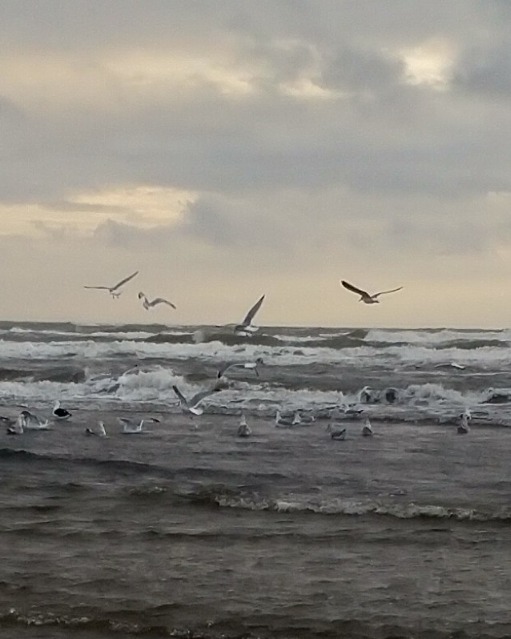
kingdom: Animalia
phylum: Chordata
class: Aves
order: Charadriiformes
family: Laridae
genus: Larus
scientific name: Larus argentatus
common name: Sølvmåge
